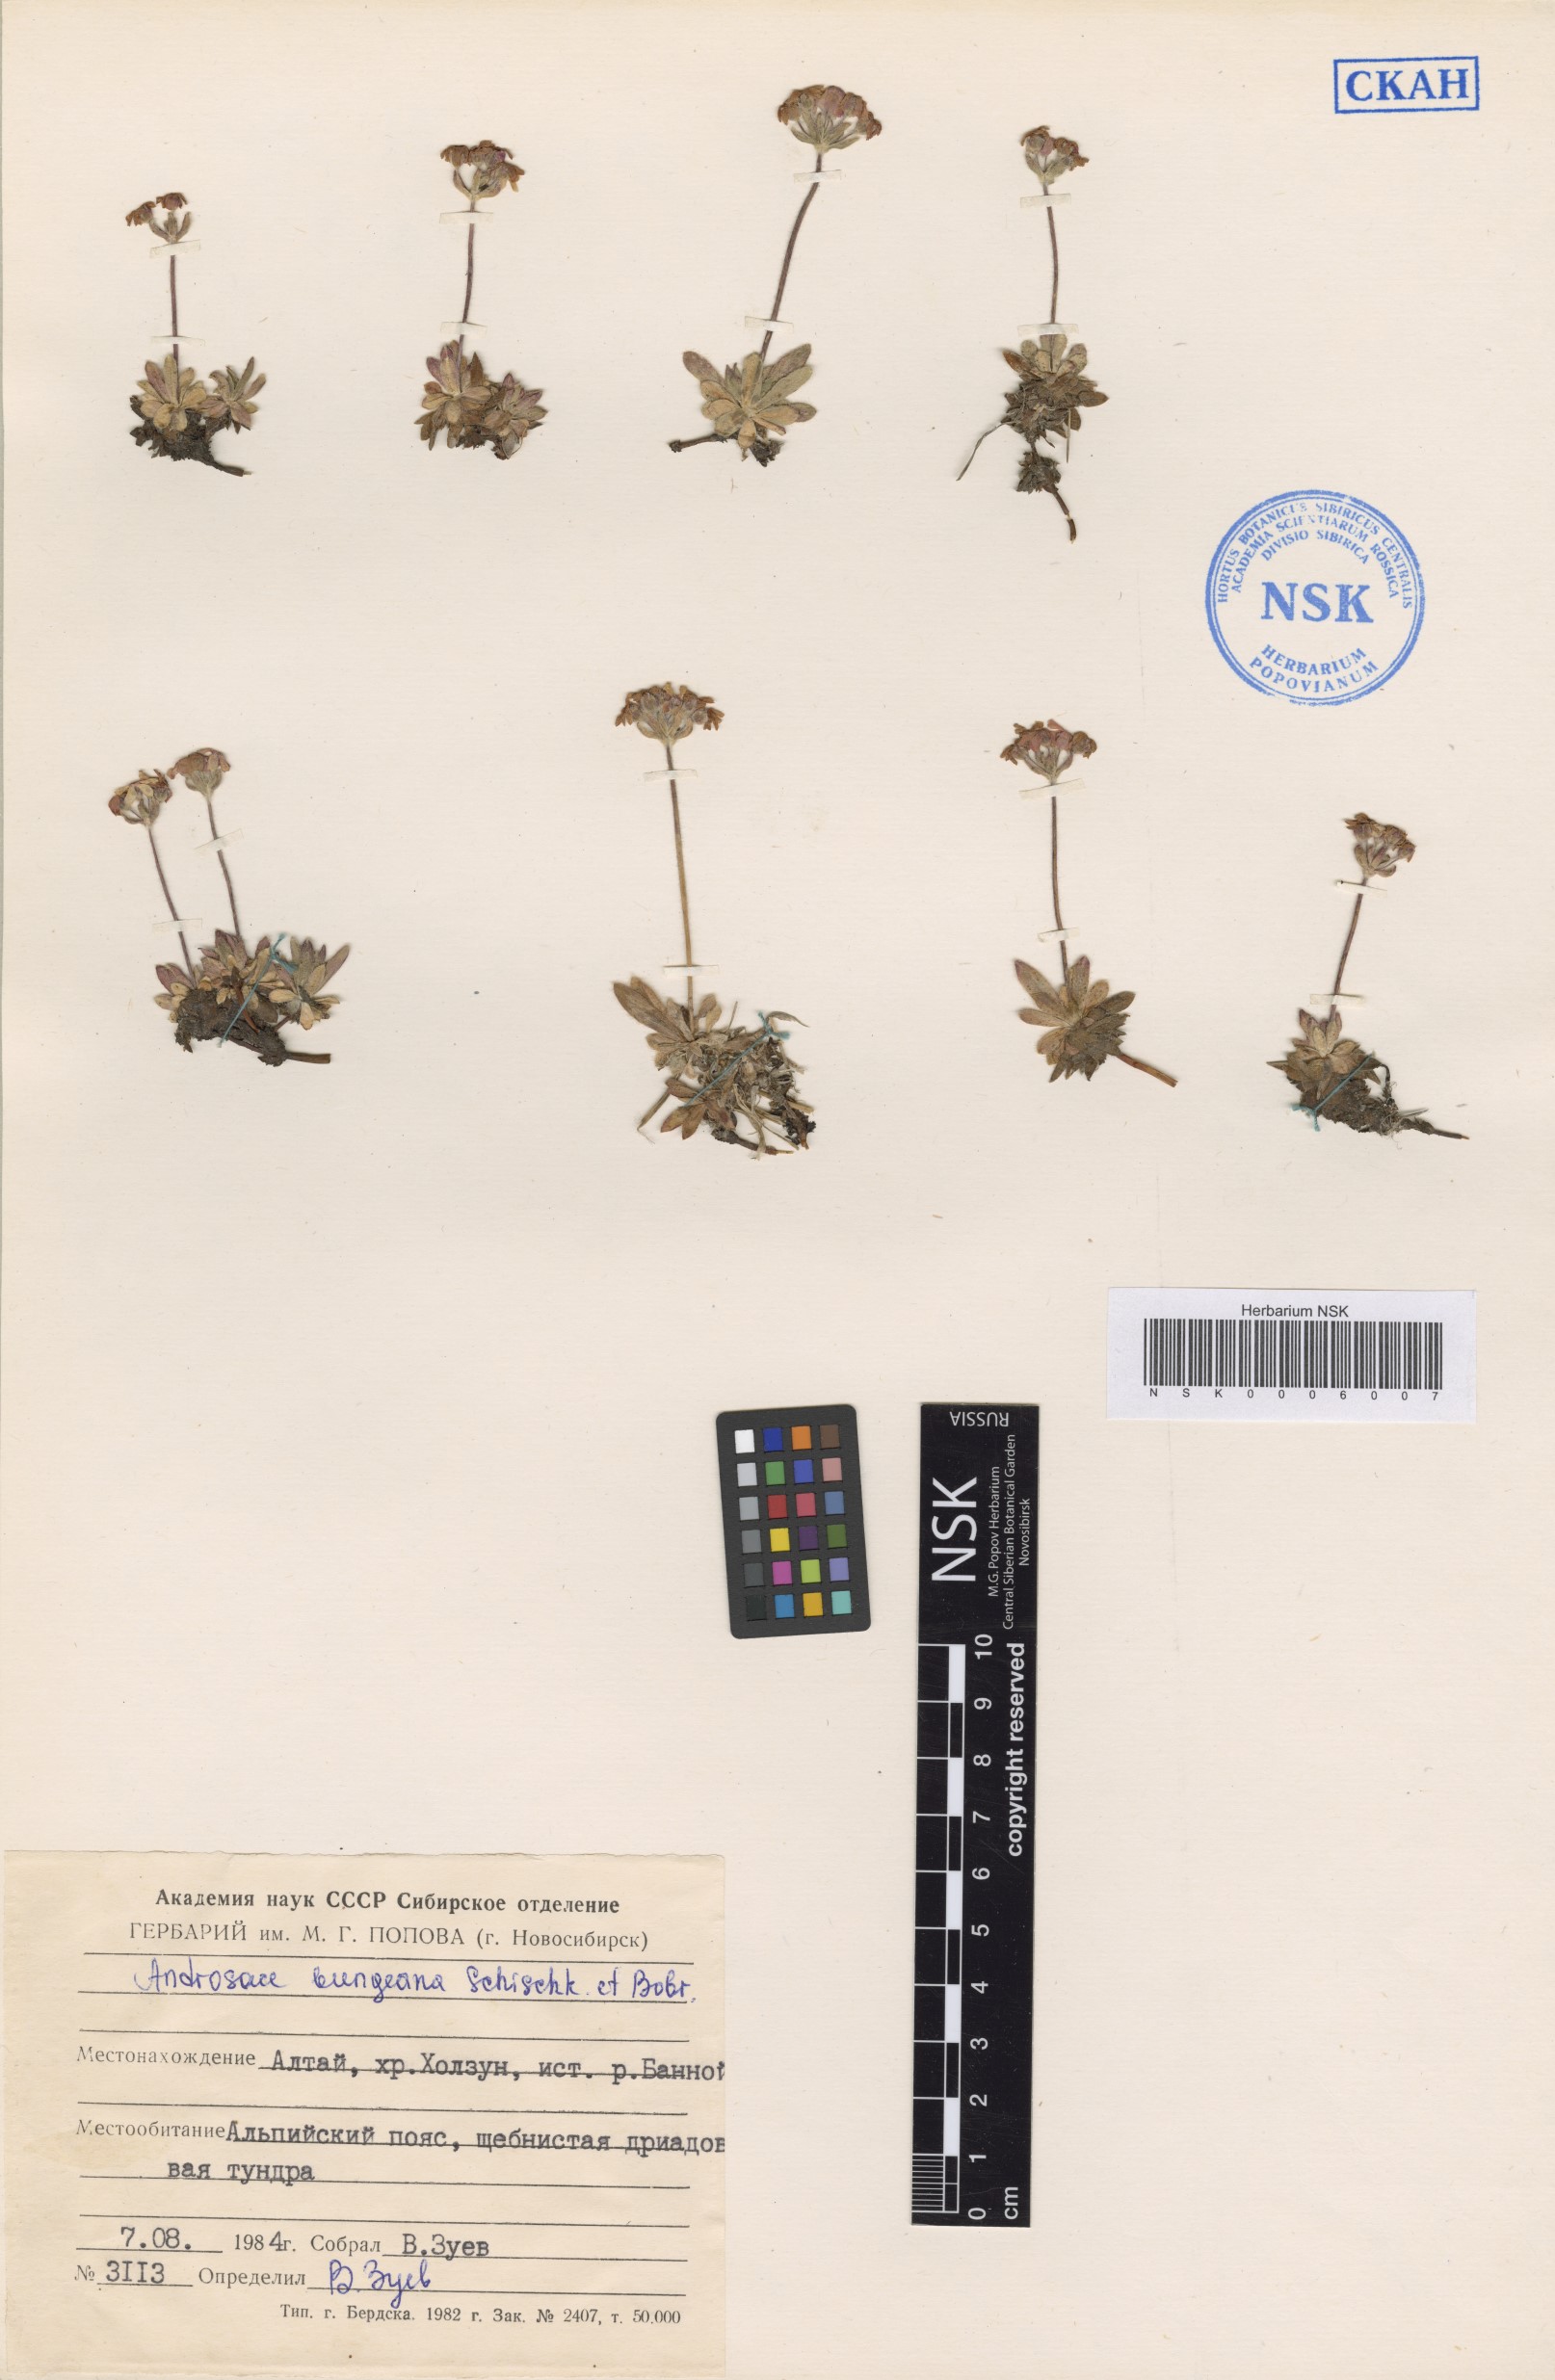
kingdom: Plantae
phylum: Tracheophyta
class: Magnoliopsida
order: Ericales
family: Primulaceae
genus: Androsace
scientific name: Androsace bungeana
